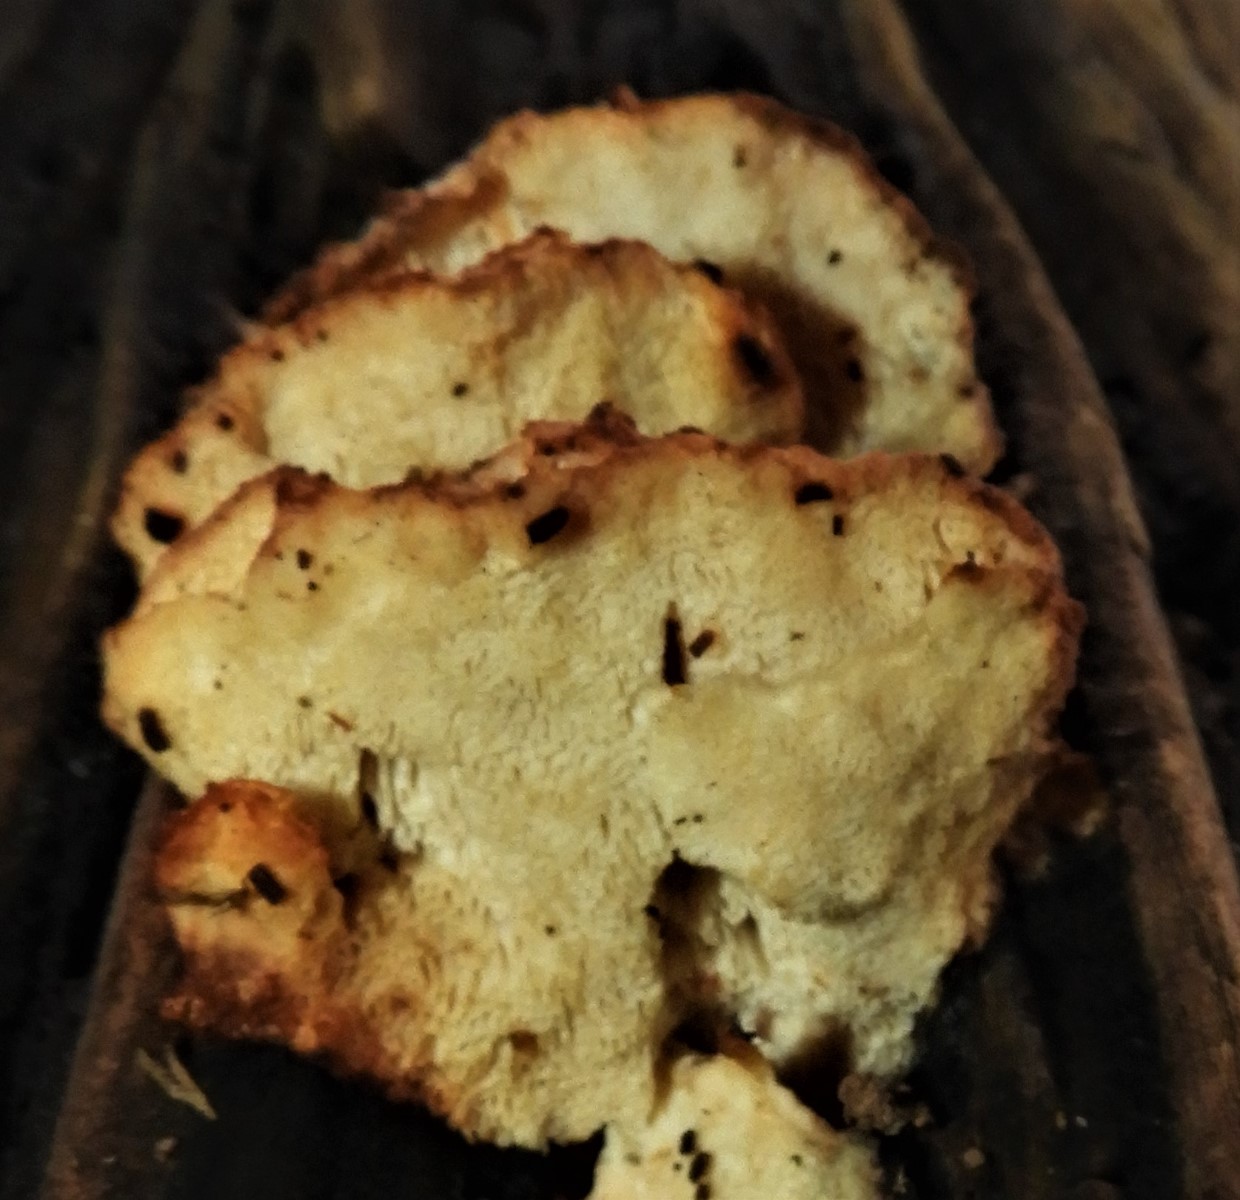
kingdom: Fungi
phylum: Basidiomycota
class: Agaricomycetes
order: Polyporales
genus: Fuscopostia
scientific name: Fuscopostia fragilis
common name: brunende kødporesvamp
